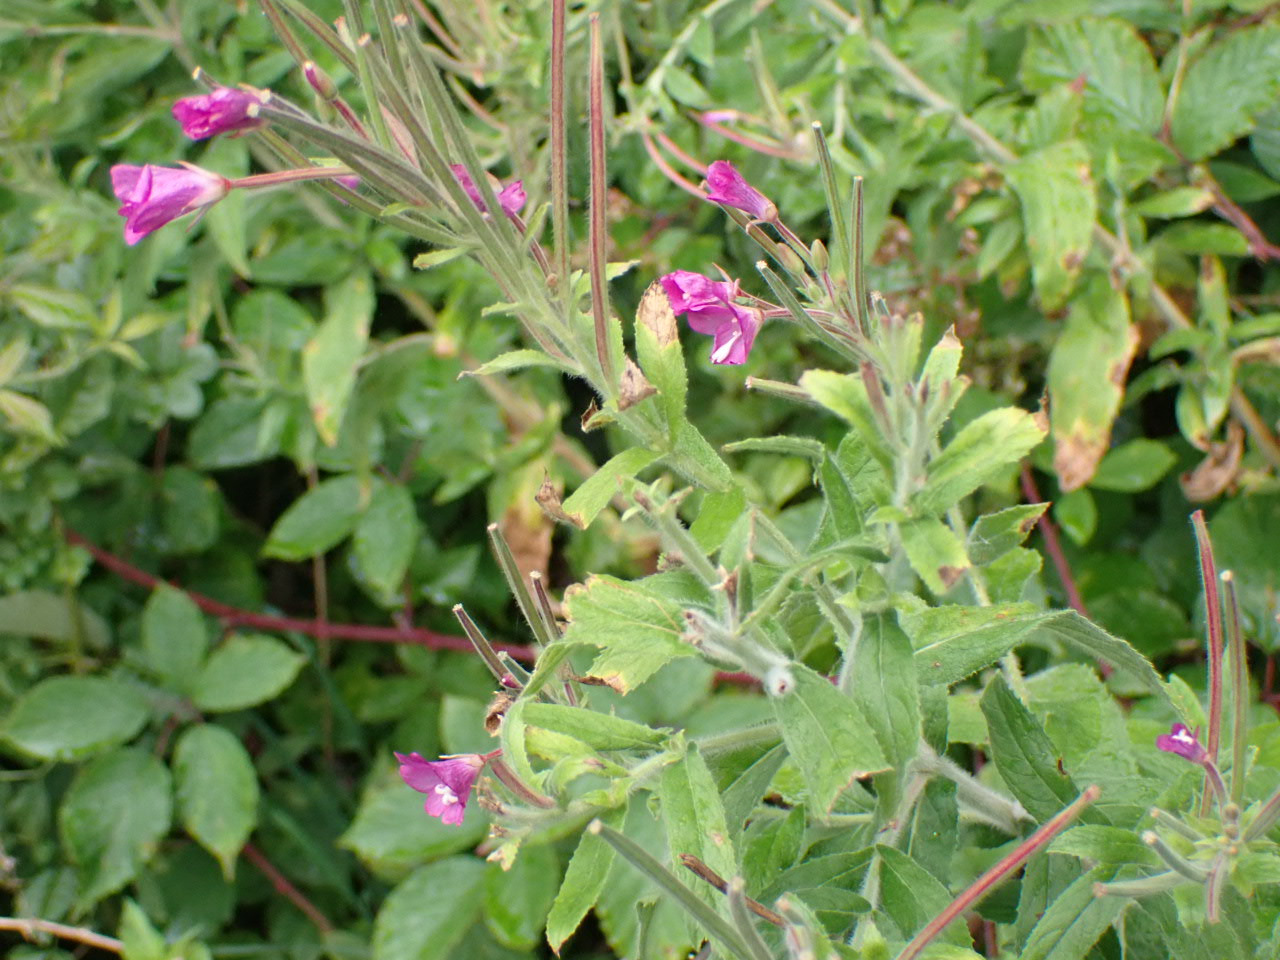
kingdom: Plantae
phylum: Tracheophyta
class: Magnoliopsida
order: Myrtales
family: Onagraceae
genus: Epilobium
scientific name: Epilobium hirsutum
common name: Lådden dueurt
